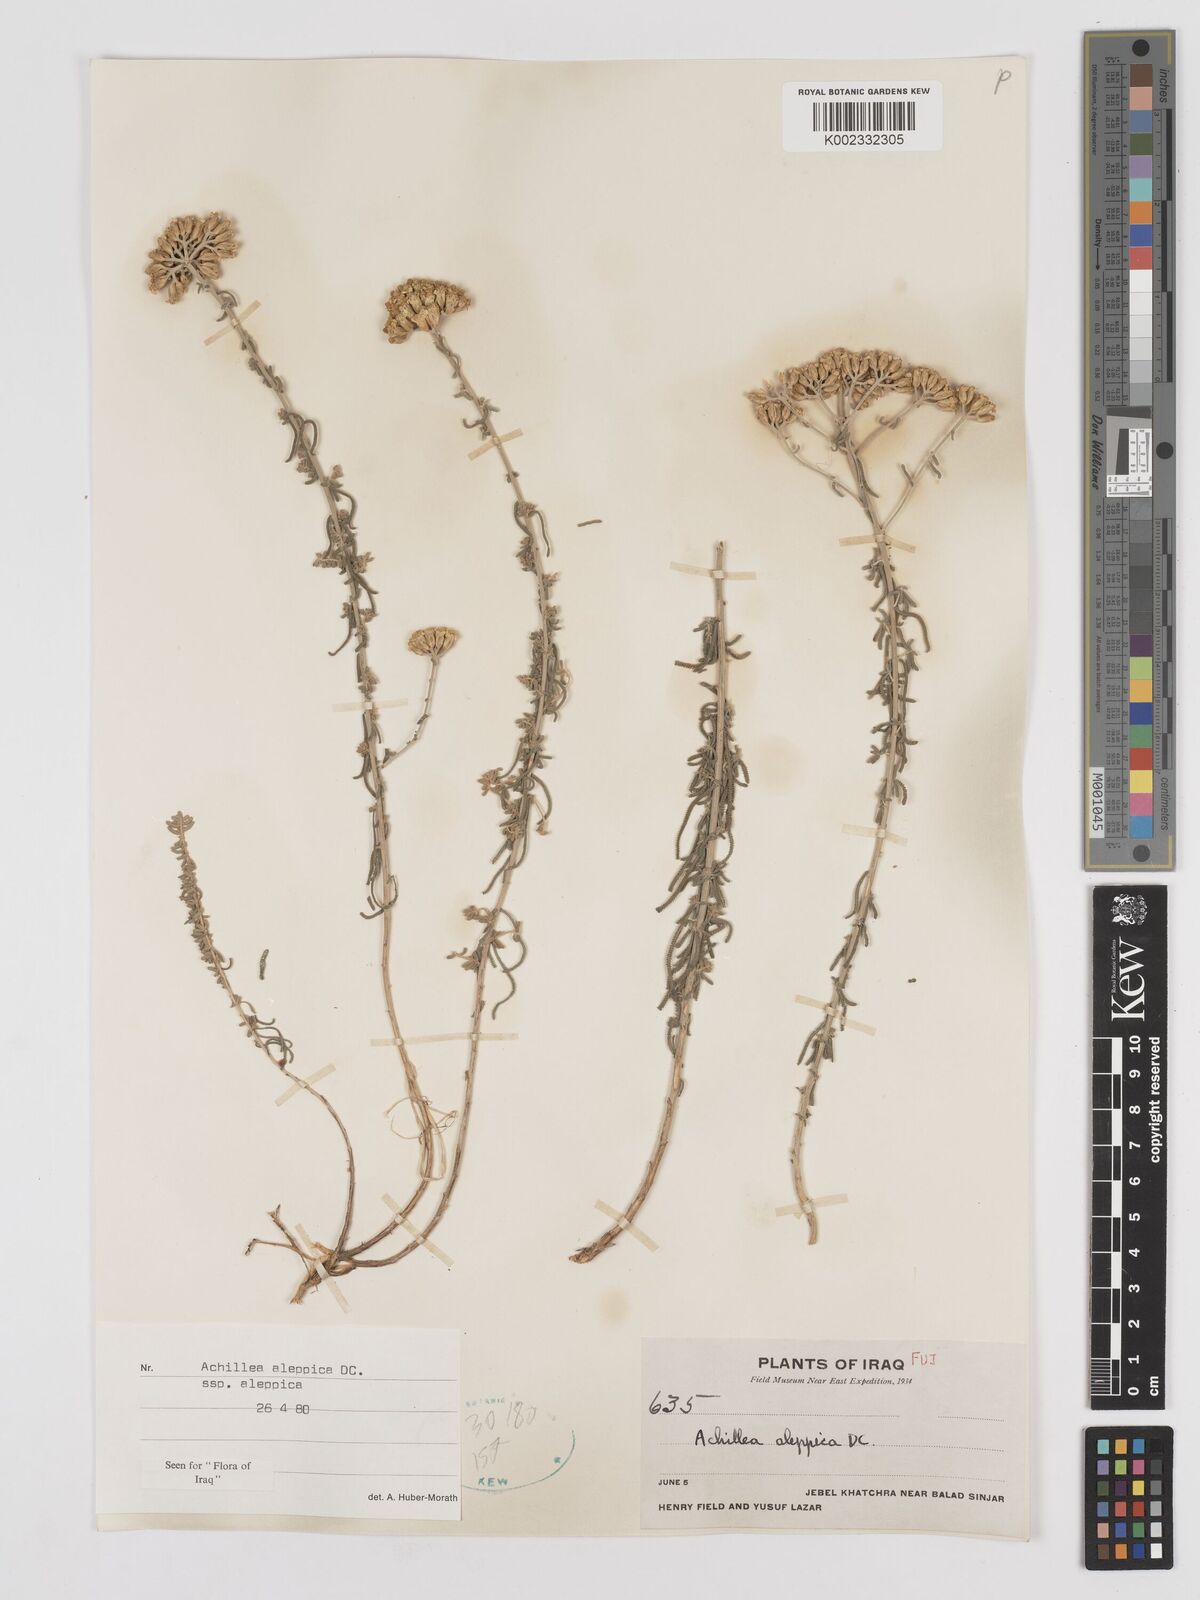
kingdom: Plantae
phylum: Tracheophyta
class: Magnoliopsida
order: Asterales
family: Asteraceae
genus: Achillea
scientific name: Achillea aleppica
